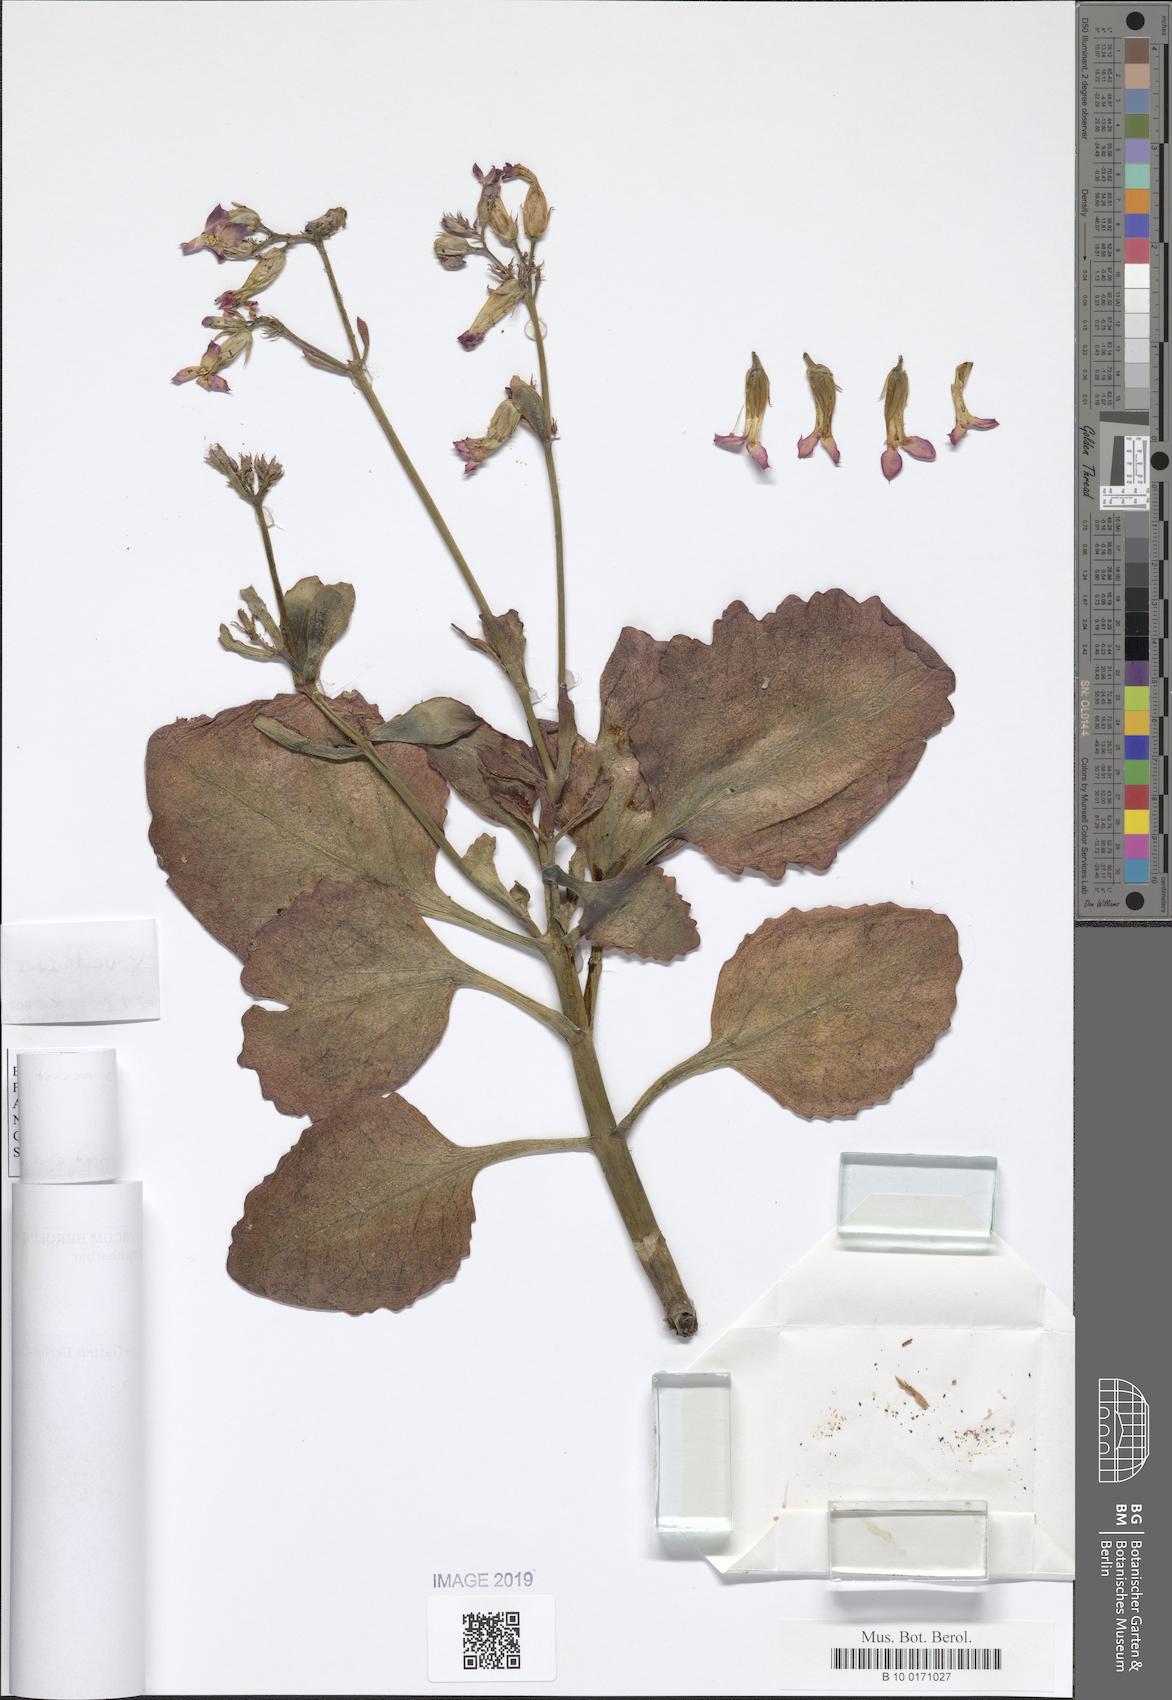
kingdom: Plantae
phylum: Tracheophyta
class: Magnoliopsida
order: Saxifragales
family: Crassulaceae
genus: Kalanchoe
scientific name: Kalanchoe vadensis
